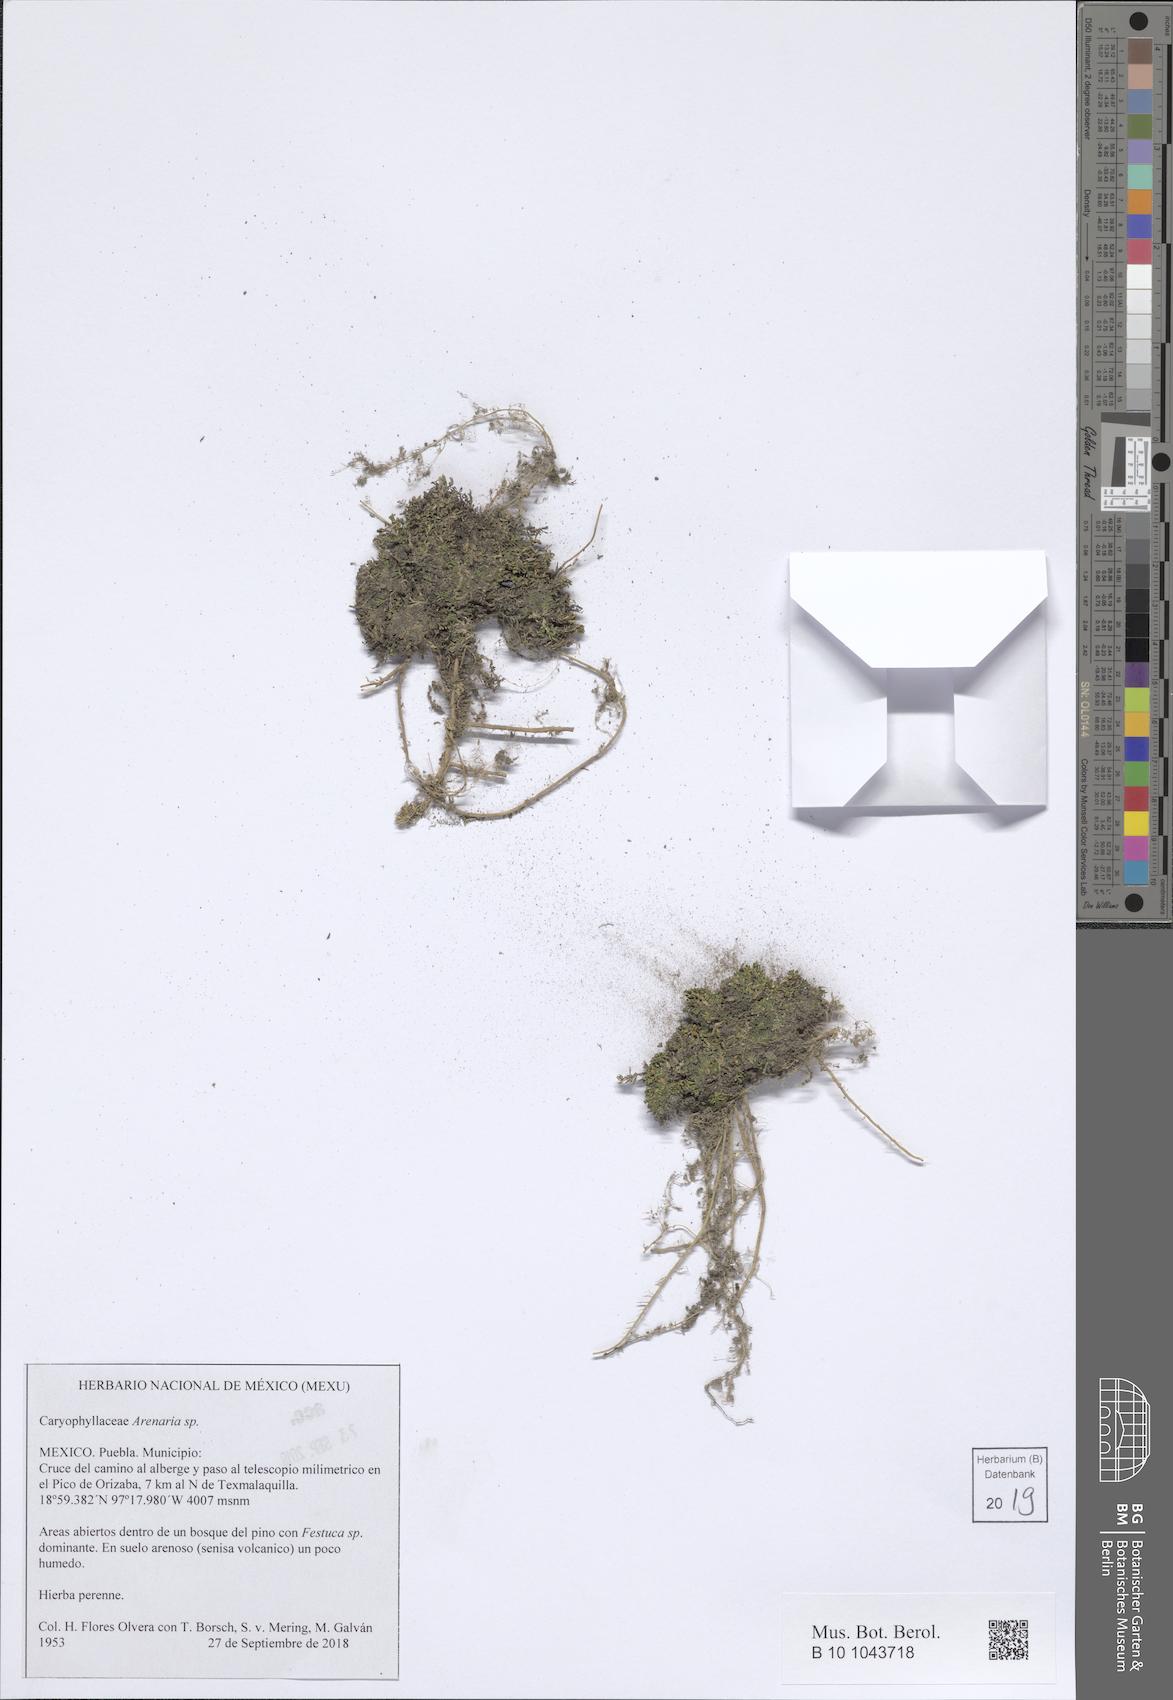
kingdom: Plantae
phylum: Tracheophyta
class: Magnoliopsida
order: Caryophyllales
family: Caryophyllaceae
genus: Arenaria
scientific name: Arenaria
